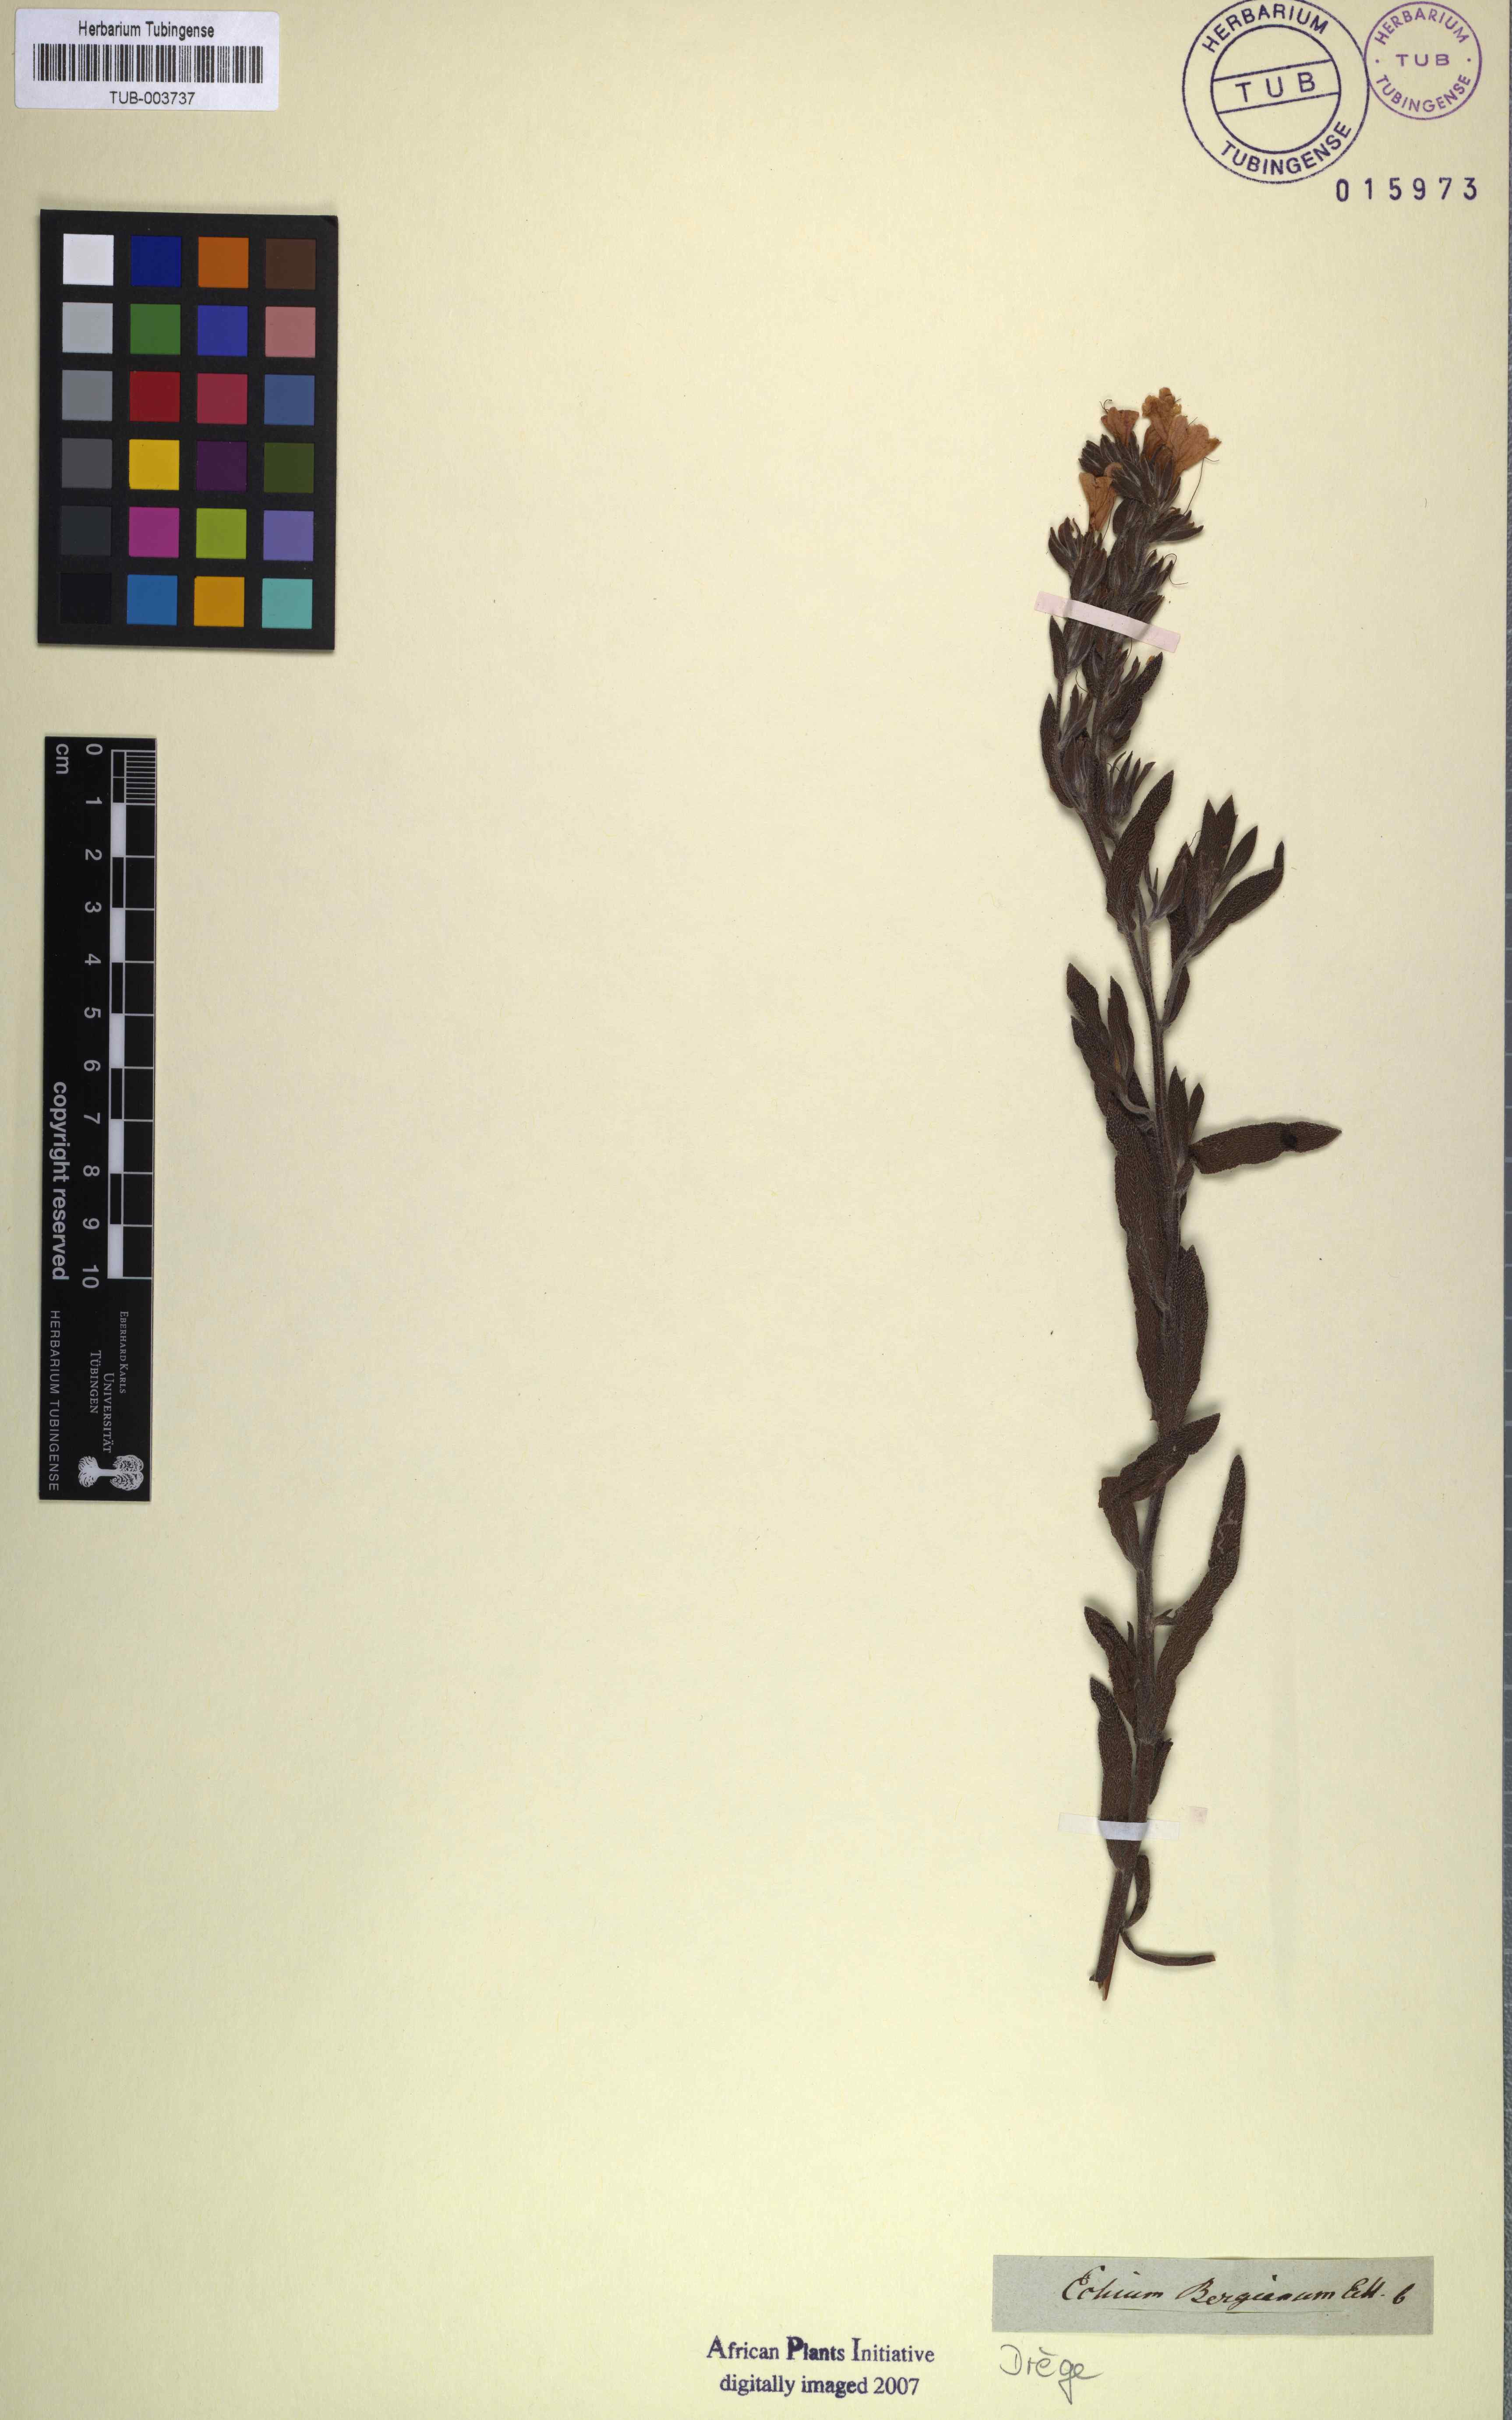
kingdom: Plantae
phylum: Tracheophyta
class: Magnoliopsida
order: Boraginales
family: Boraginaceae
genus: Lobostemon
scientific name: Lobostemon fruticosus
